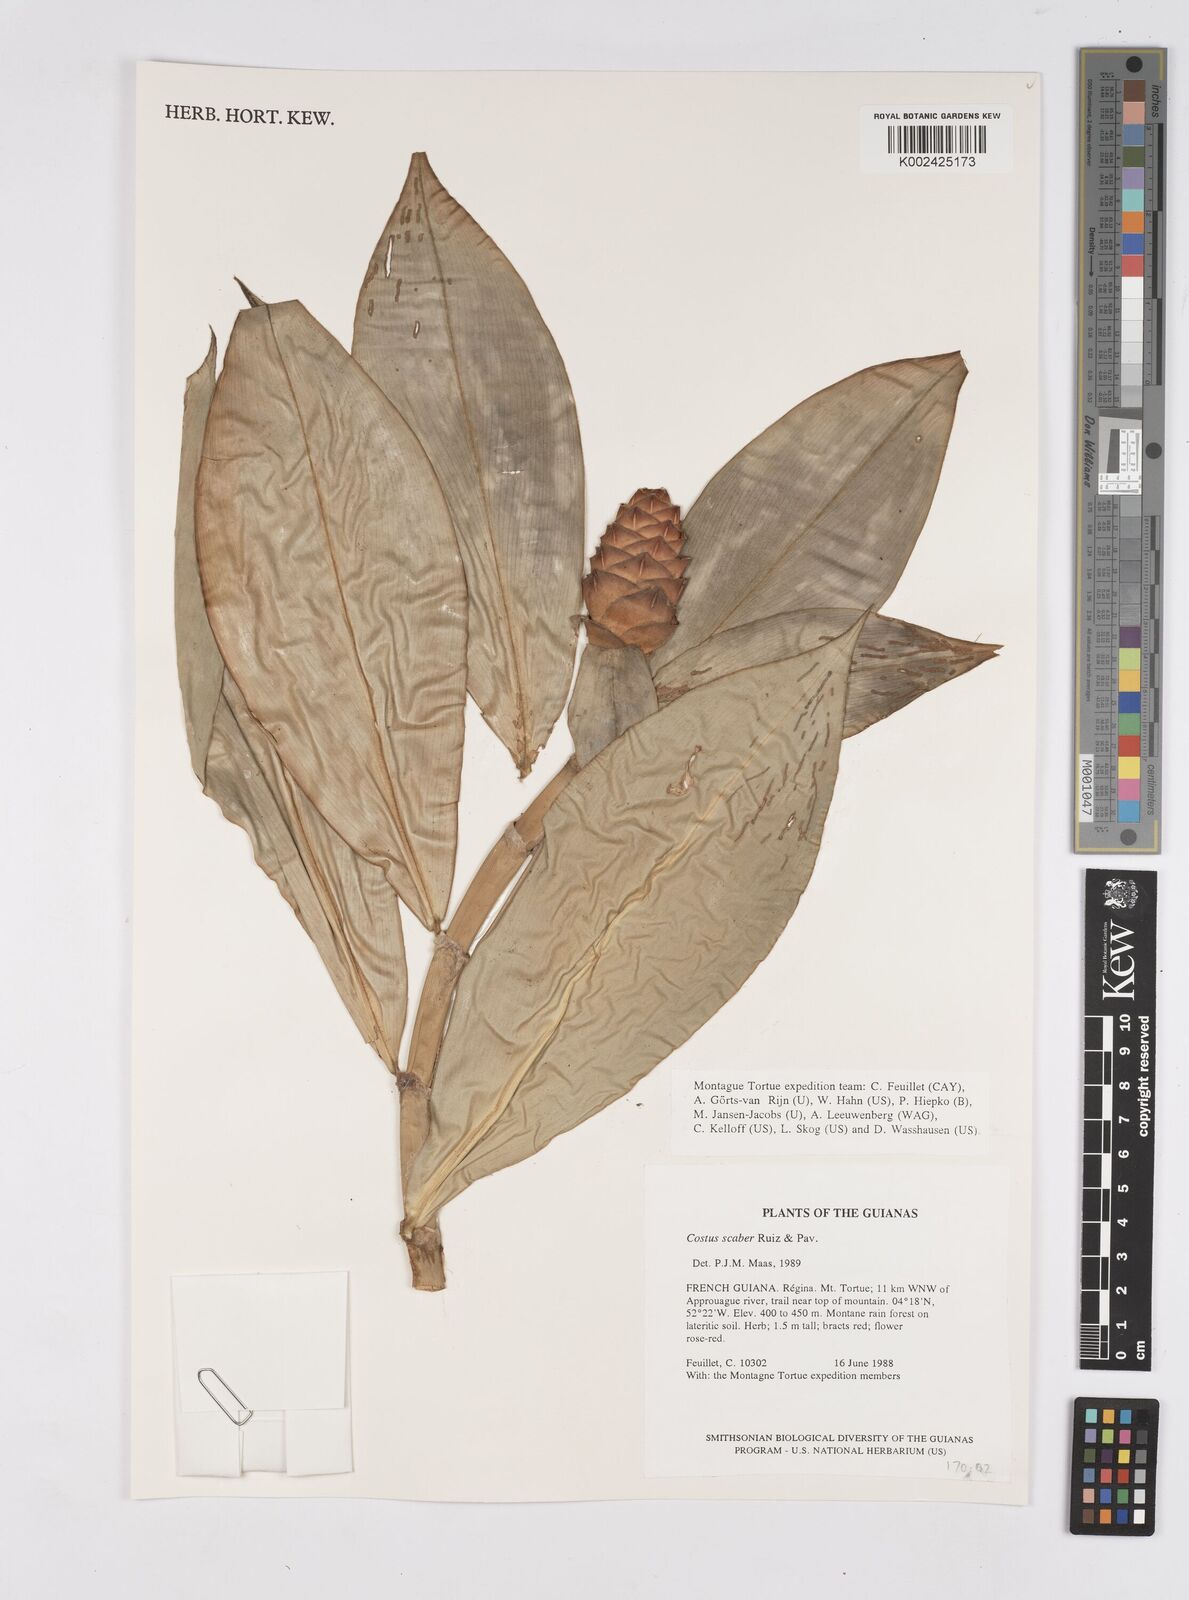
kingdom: Plantae
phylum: Tracheophyta
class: Liliopsida
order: Zingiberales
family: Costaceae
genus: Costus
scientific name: Costus scaber
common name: Spiral head ginger
